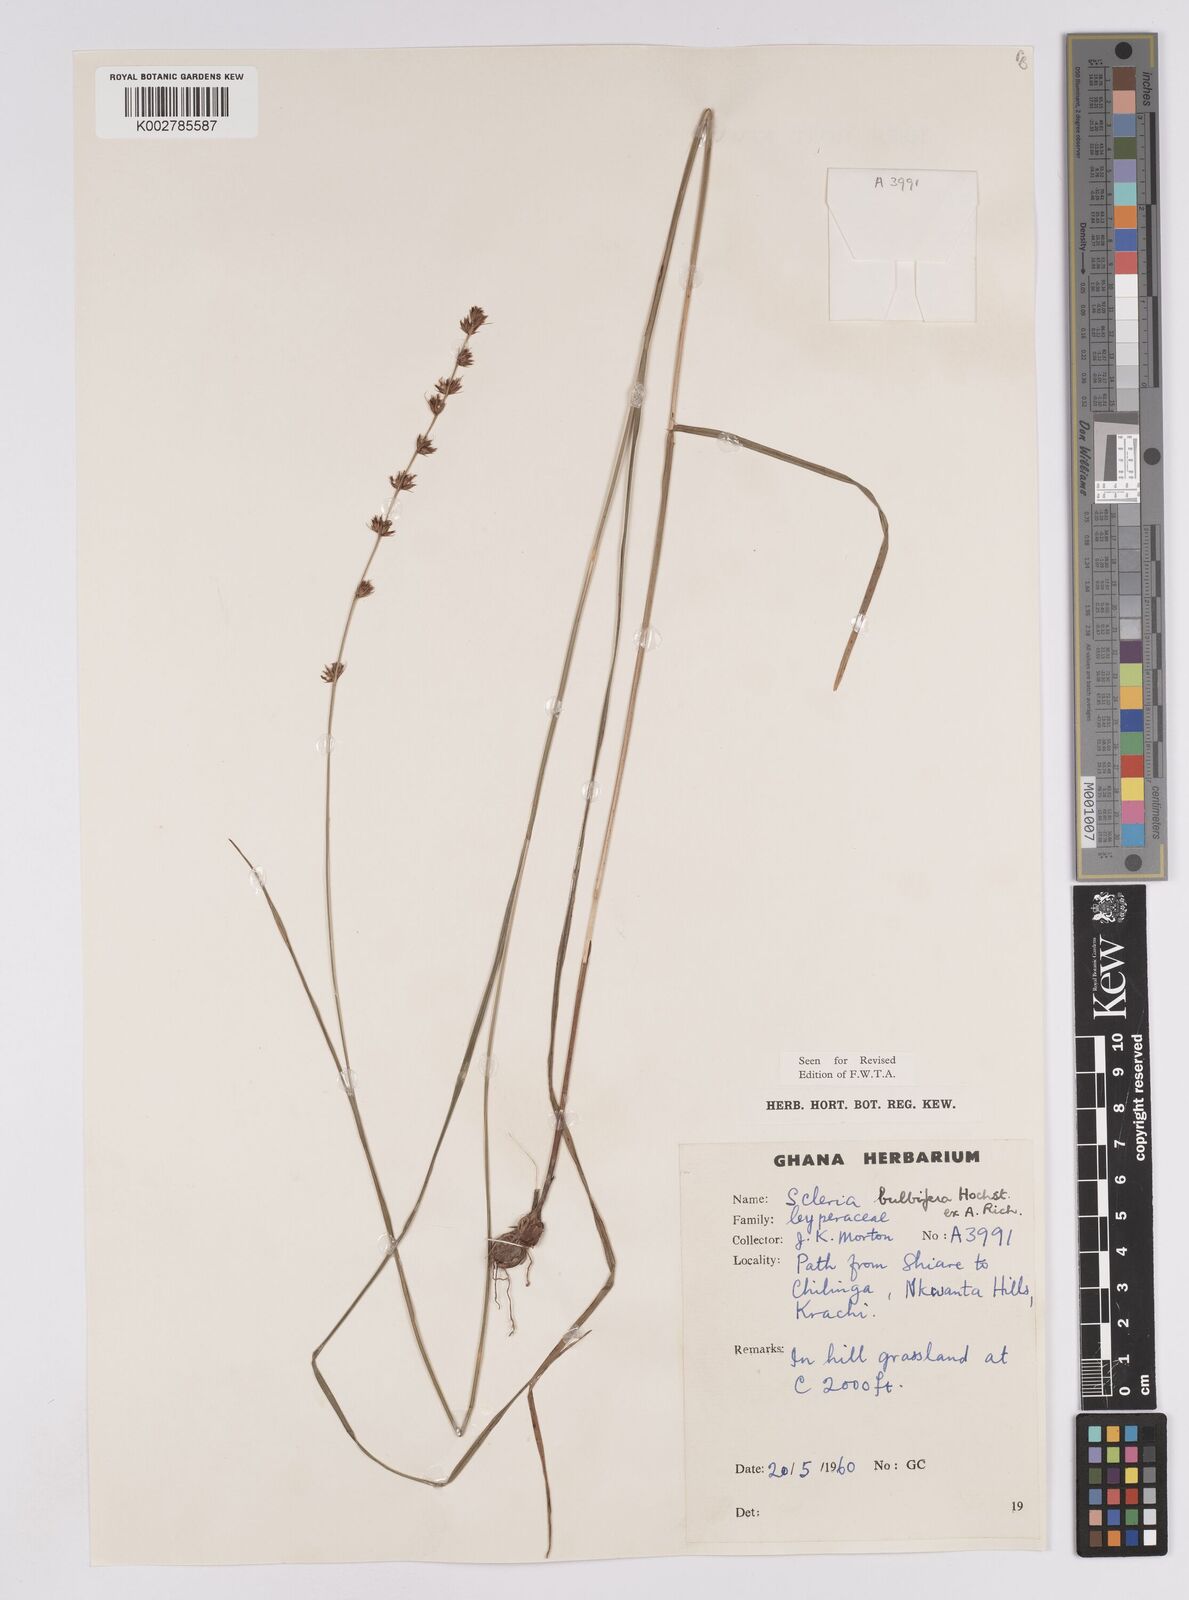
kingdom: Plantae
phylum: Tracheophyta
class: Liliopsida
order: Poales
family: Cyperaceae
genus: Scleria
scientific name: Scleria bulbifera
